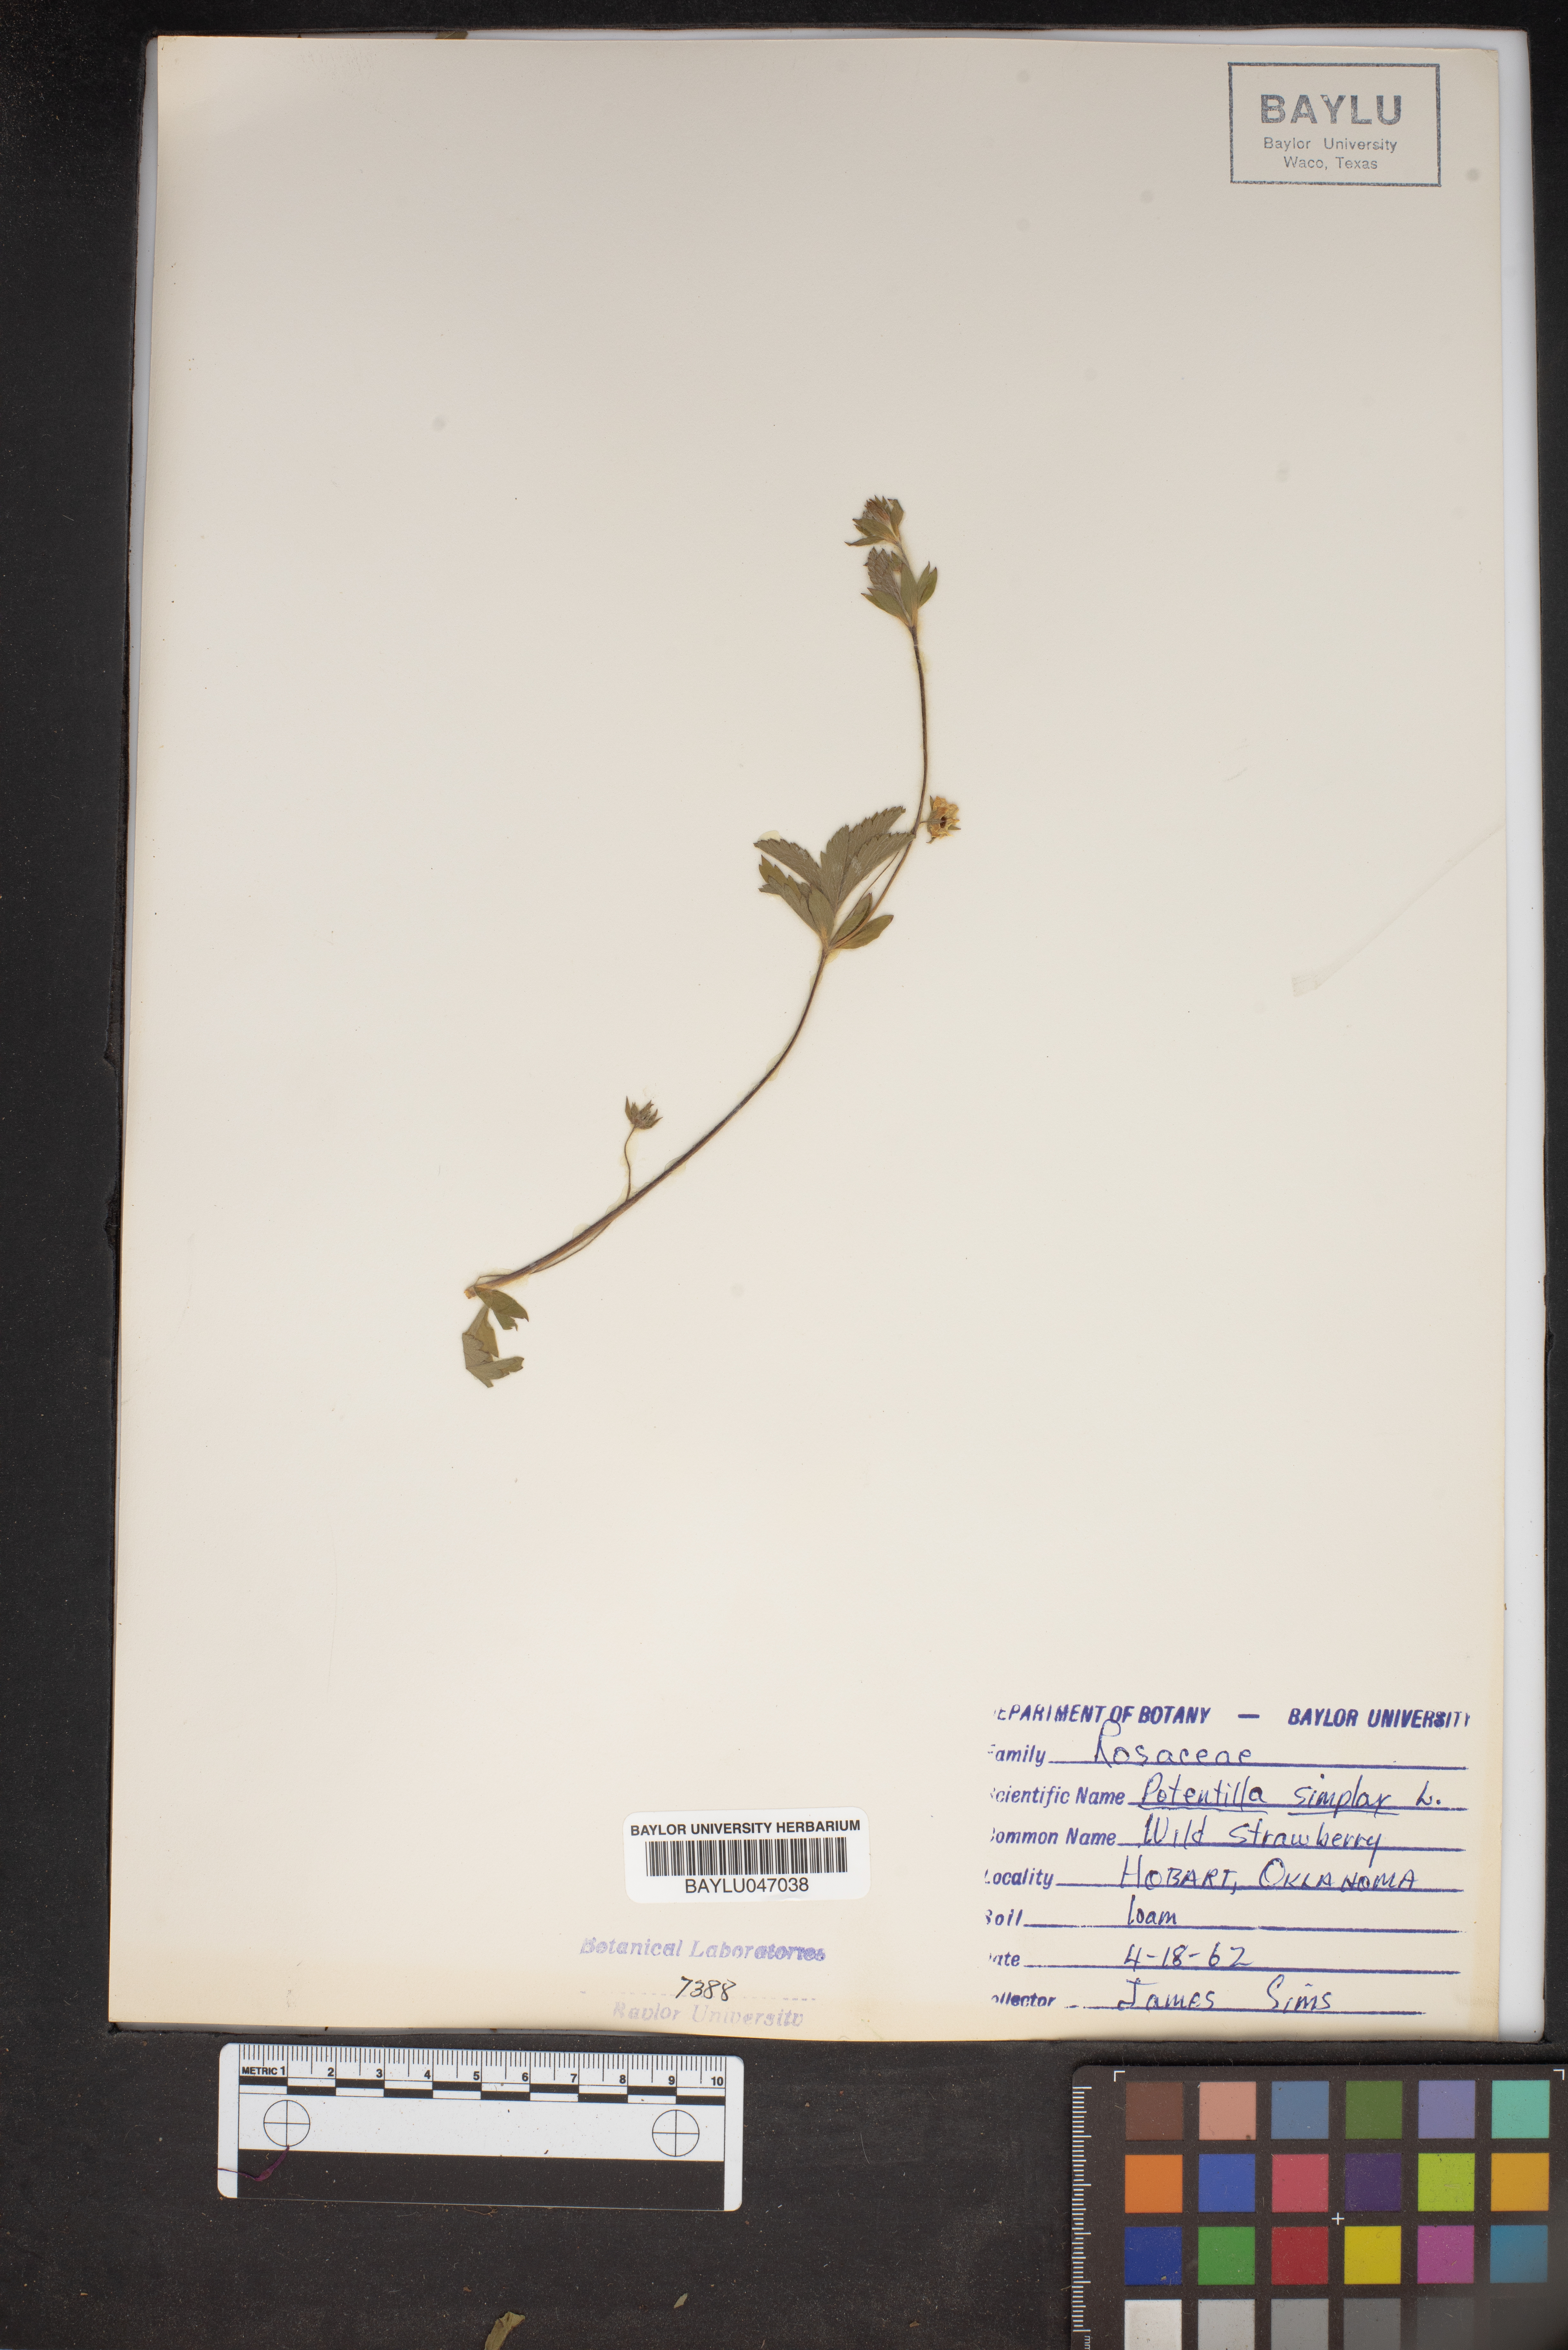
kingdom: Plantae
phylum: Tracheophyta
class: Magnoliopsida
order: Rosales
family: Rosaceae
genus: Potentilla
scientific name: Potentilla simplex
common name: Old field cinquefoil
